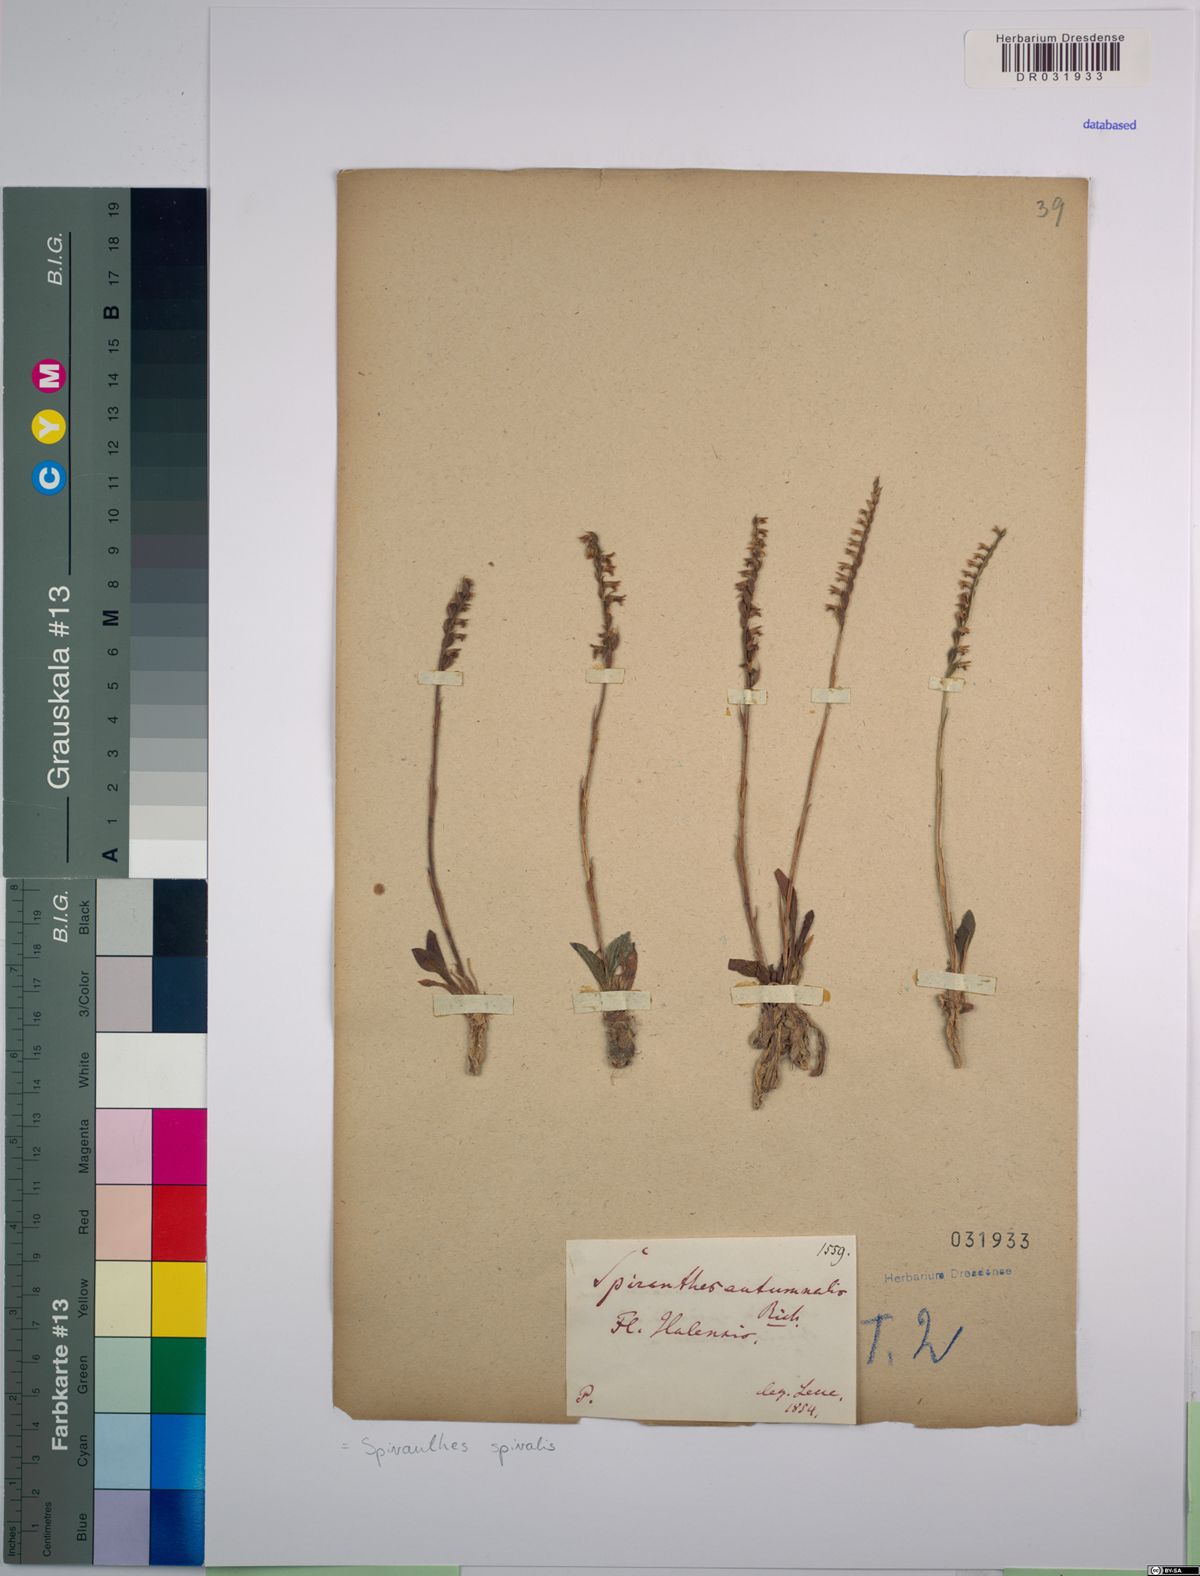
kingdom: Plantae
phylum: Tracheophyta
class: Liliopsida
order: Asparagales
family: Orchidaceae
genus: Spiranthes
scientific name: Spiranthes spiralis
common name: Autumn lady's-tresses
